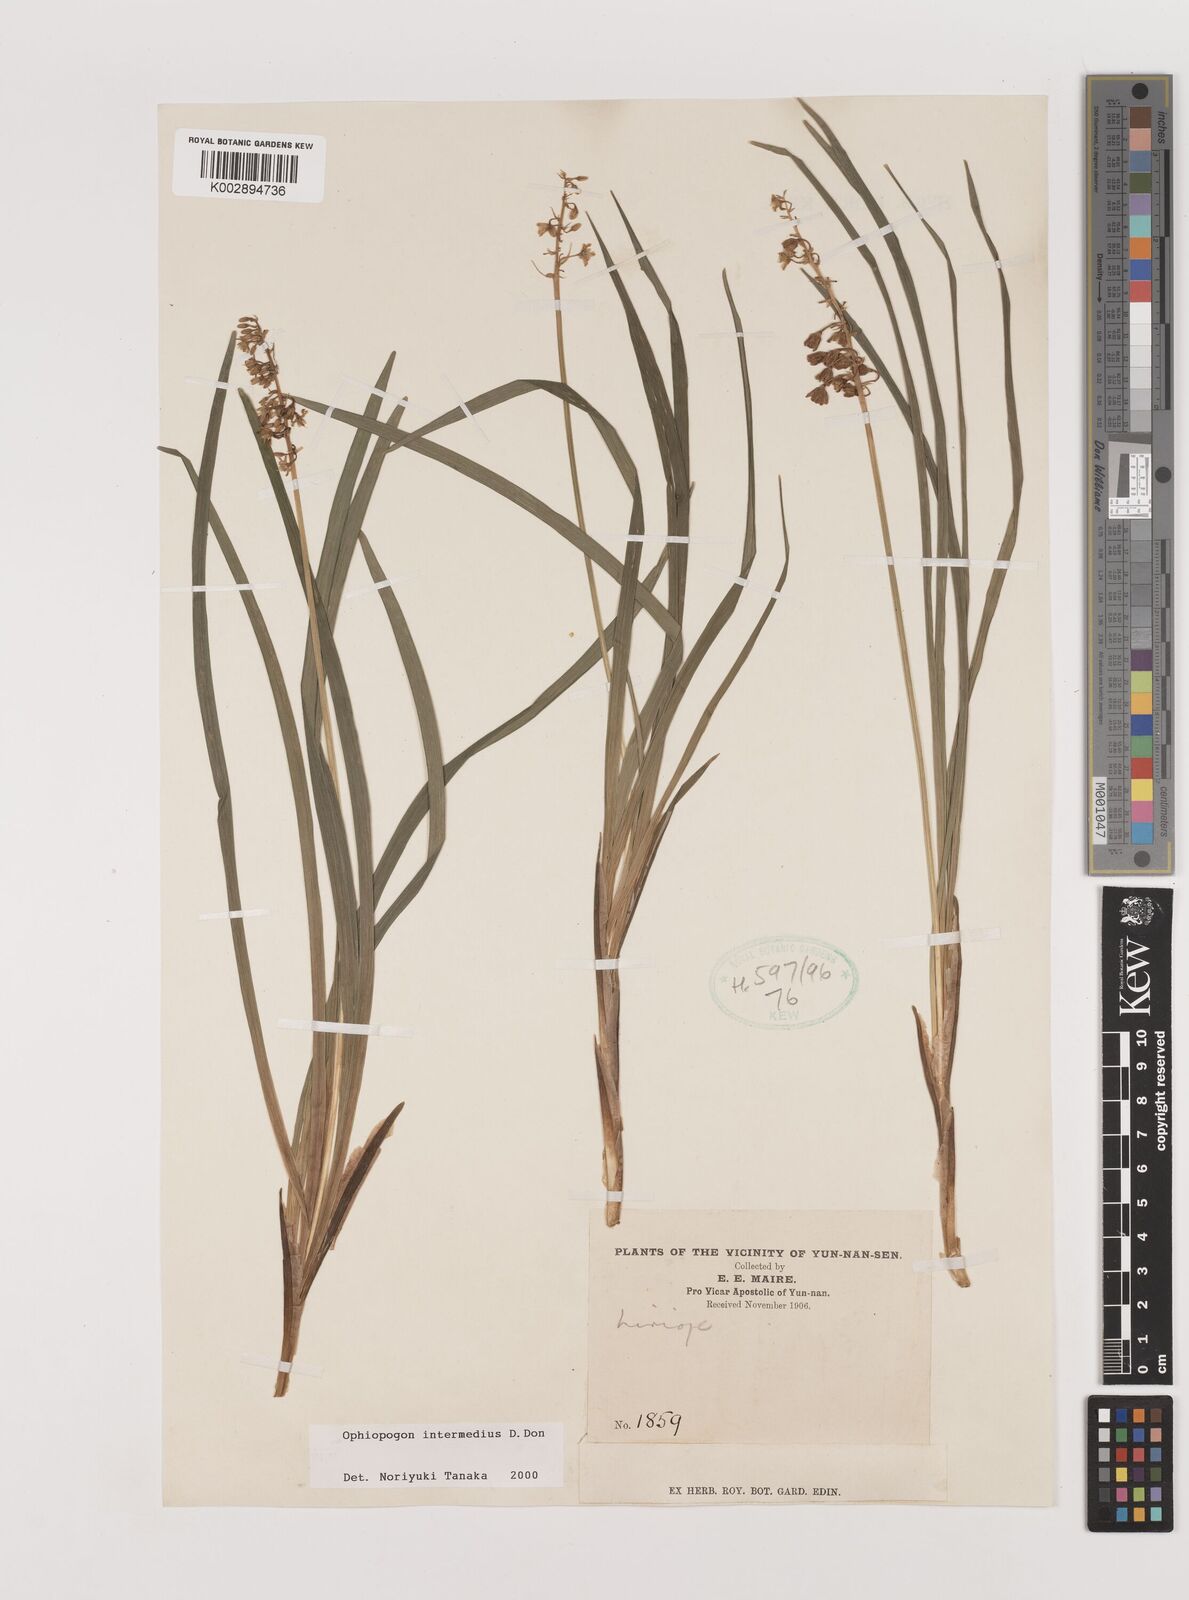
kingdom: Plantae
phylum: Tracheophyta
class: Liliopsida
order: Asparagales
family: Asparagaceae
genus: Ophiopogon
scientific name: Ophiopogon intermedius
